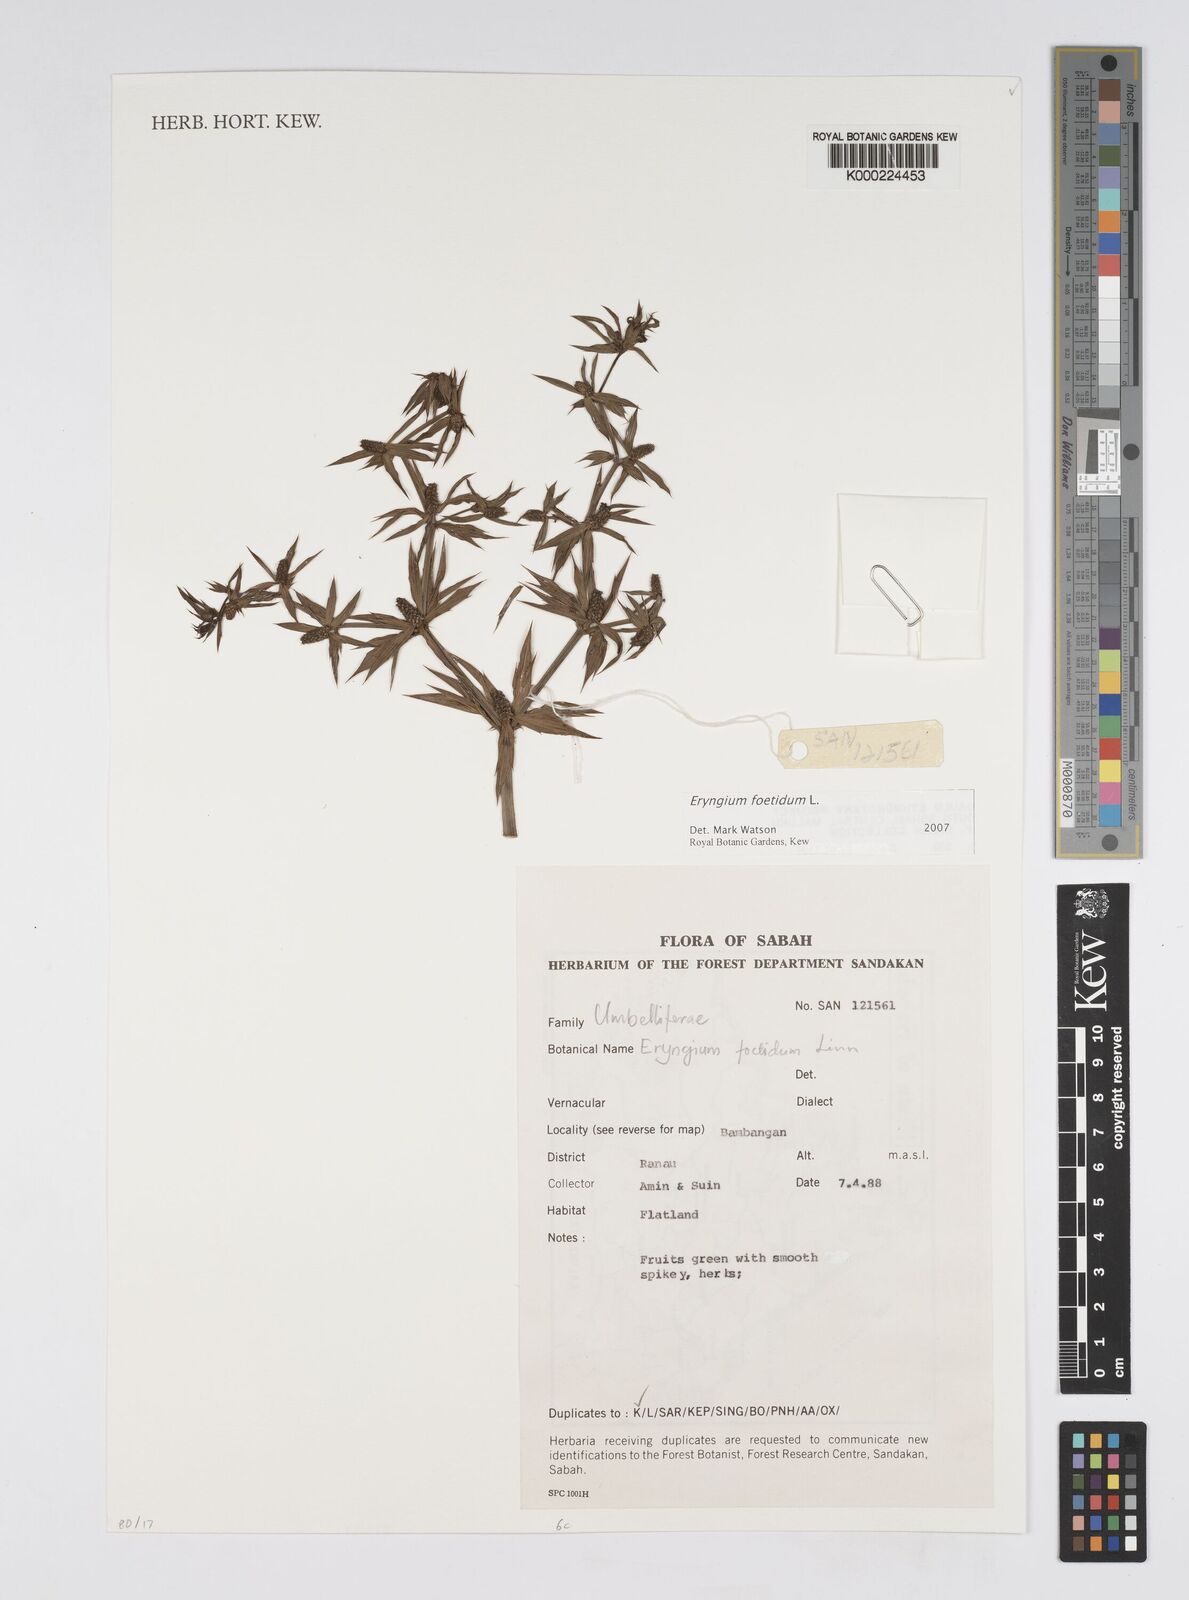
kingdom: Plantae
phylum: Tracheophyta
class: Magnoliopsida
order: Apiales
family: Apiaceae
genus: Eryngium
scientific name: Eryngium foetidum
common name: Fitweed
